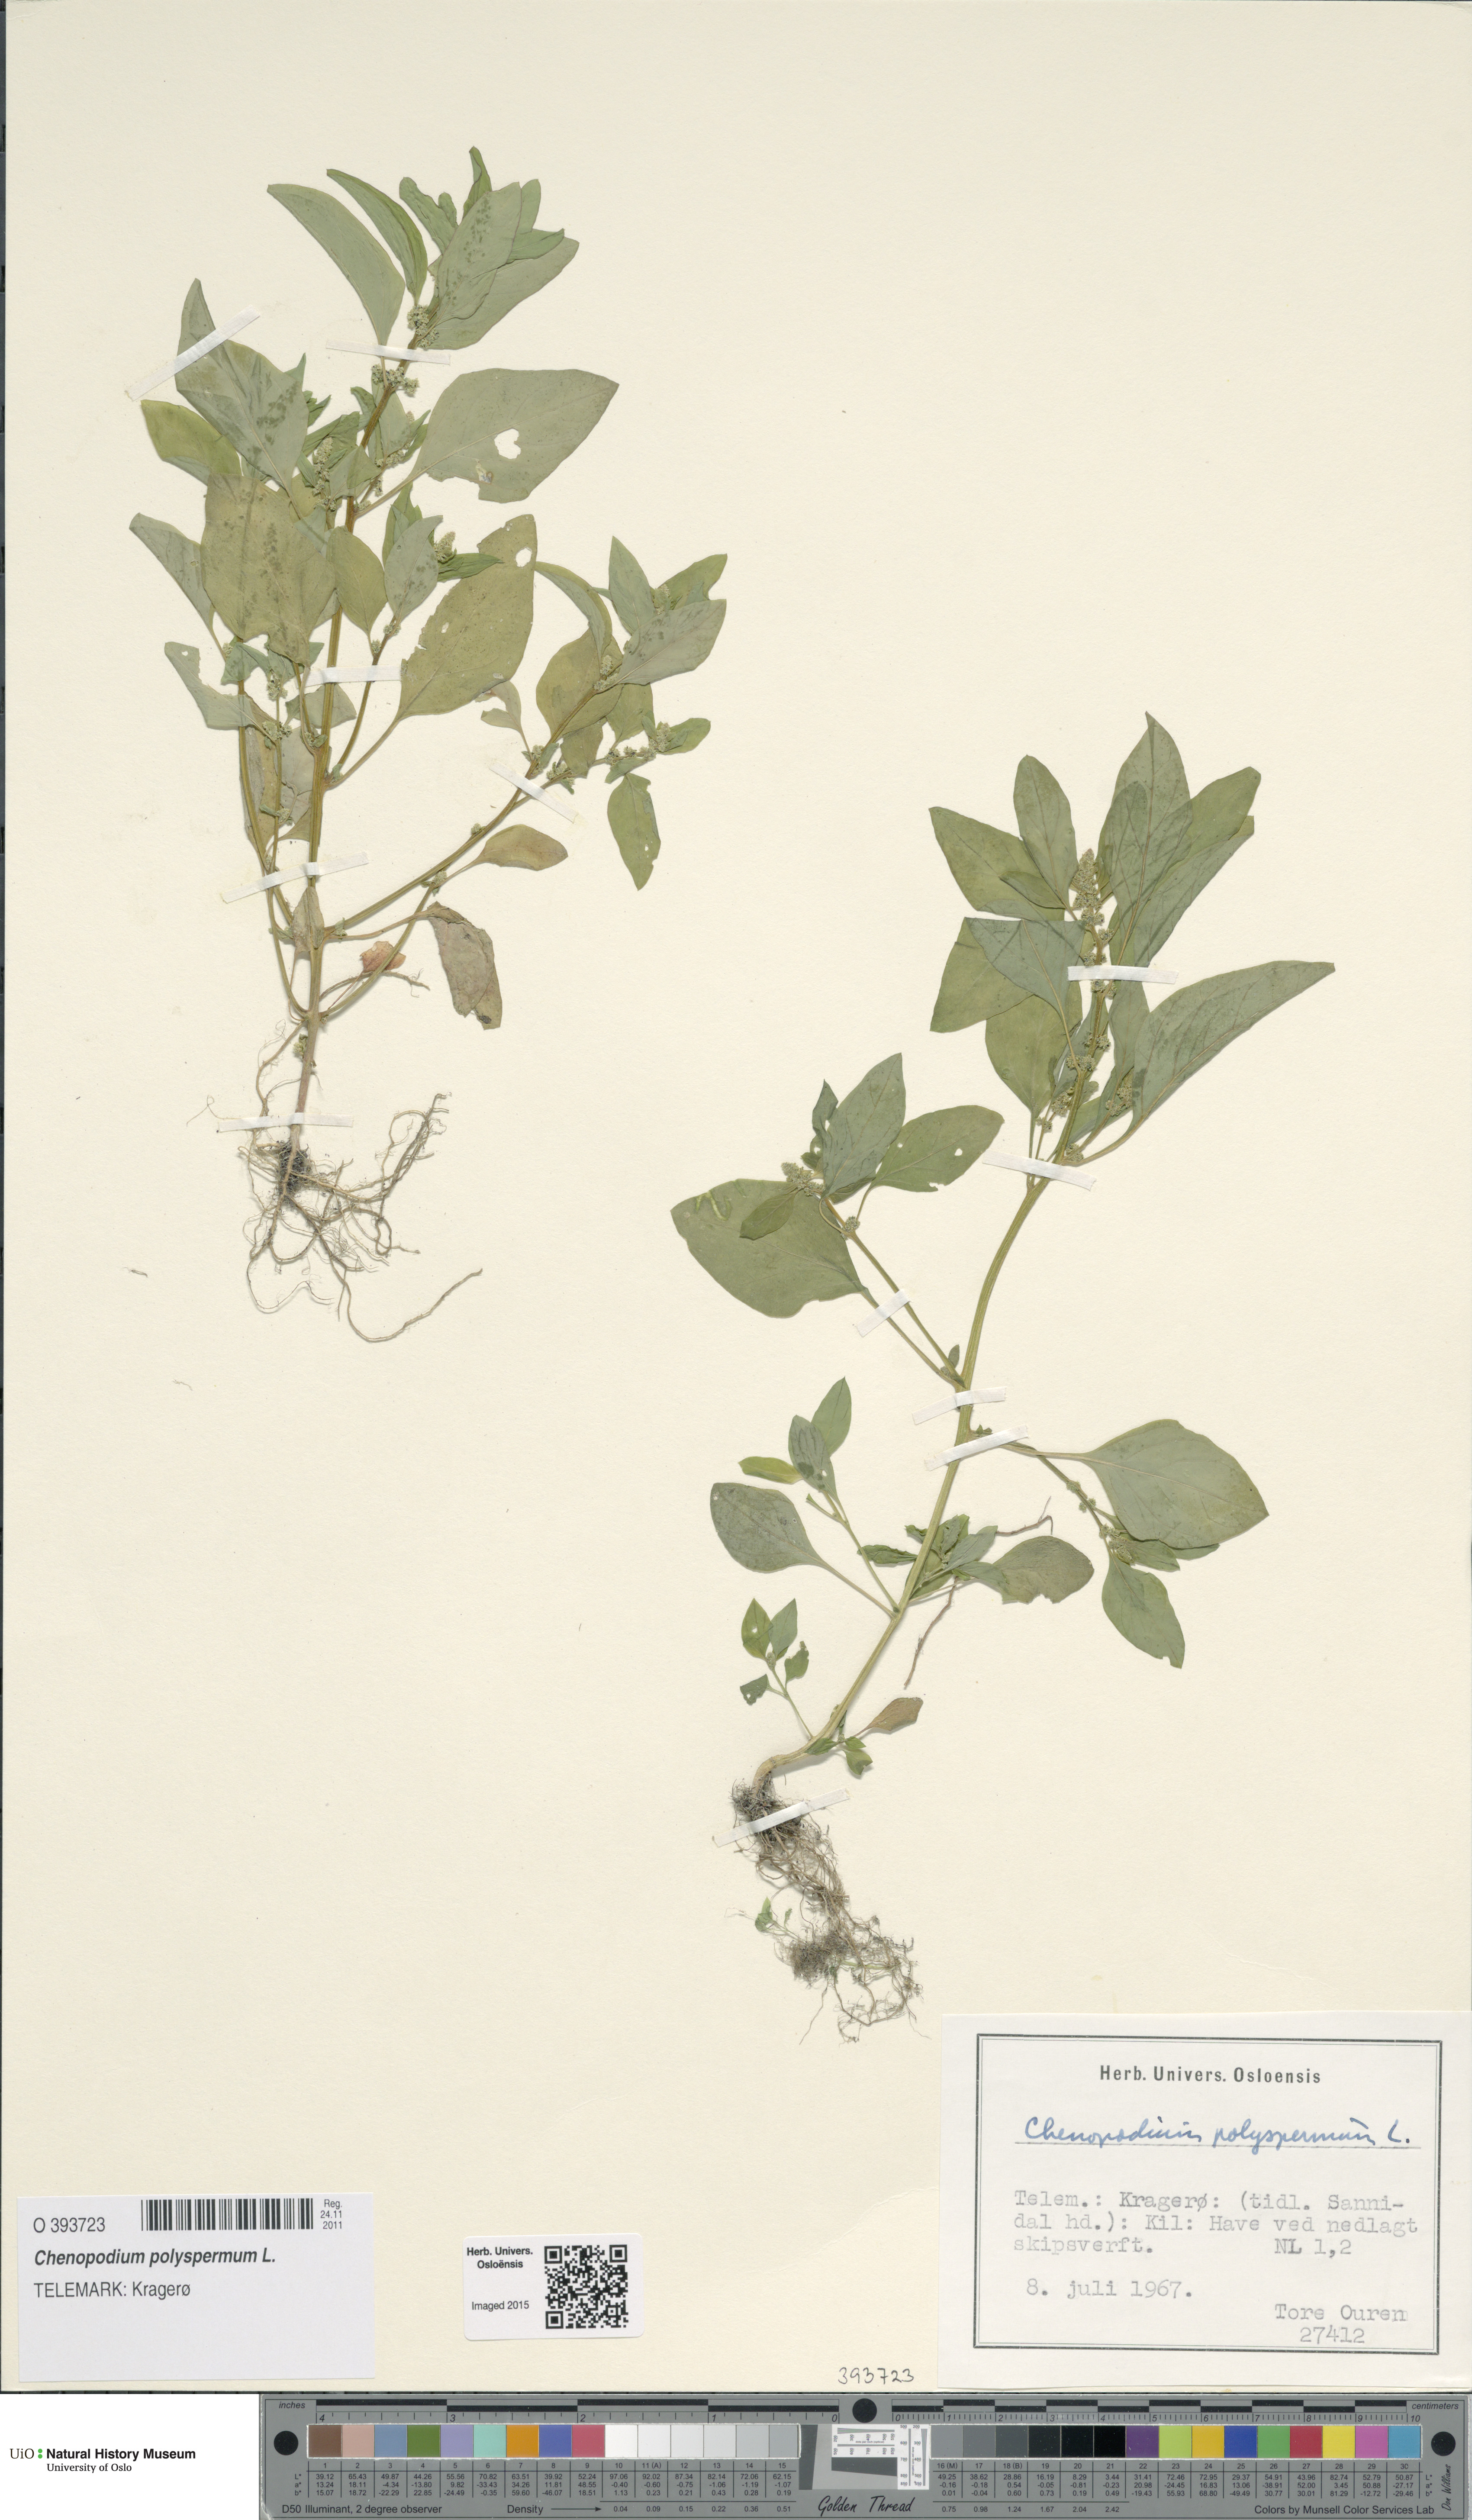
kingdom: Plantae
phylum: Tracheophyta
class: Magnoliopsida
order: Caryophyllales
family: Amaranthaceae
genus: Lipandra
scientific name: Lipandra polysperma
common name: Many-seed goosefoot
